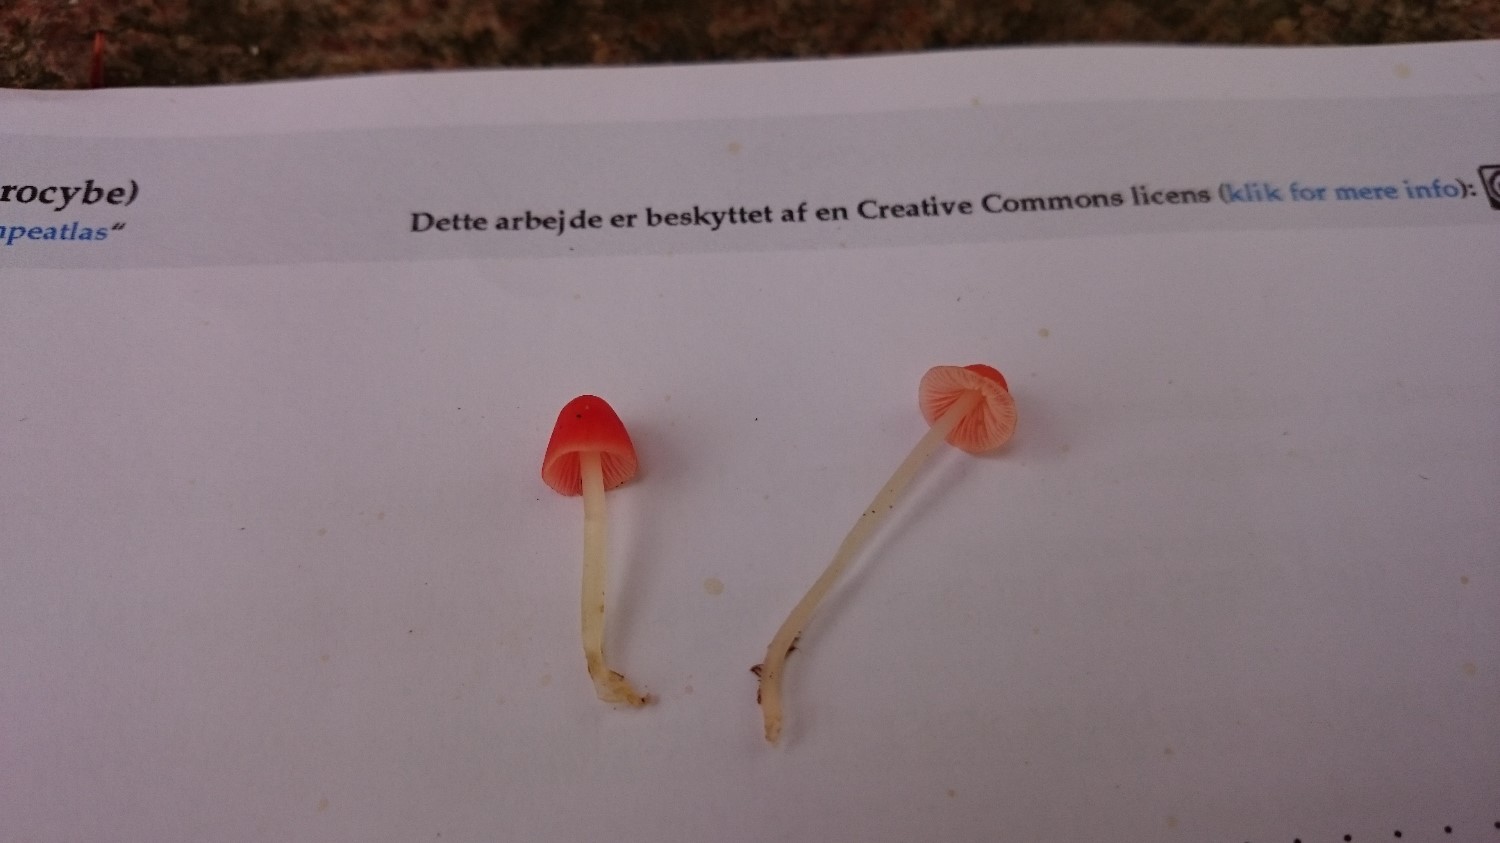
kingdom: Fungi
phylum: Basidiomycota
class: Agaricomycetes
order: Agaricales
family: Mycenaceae
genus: Atheniella
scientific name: Atheniella adonis
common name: rønnerød huesvamp
